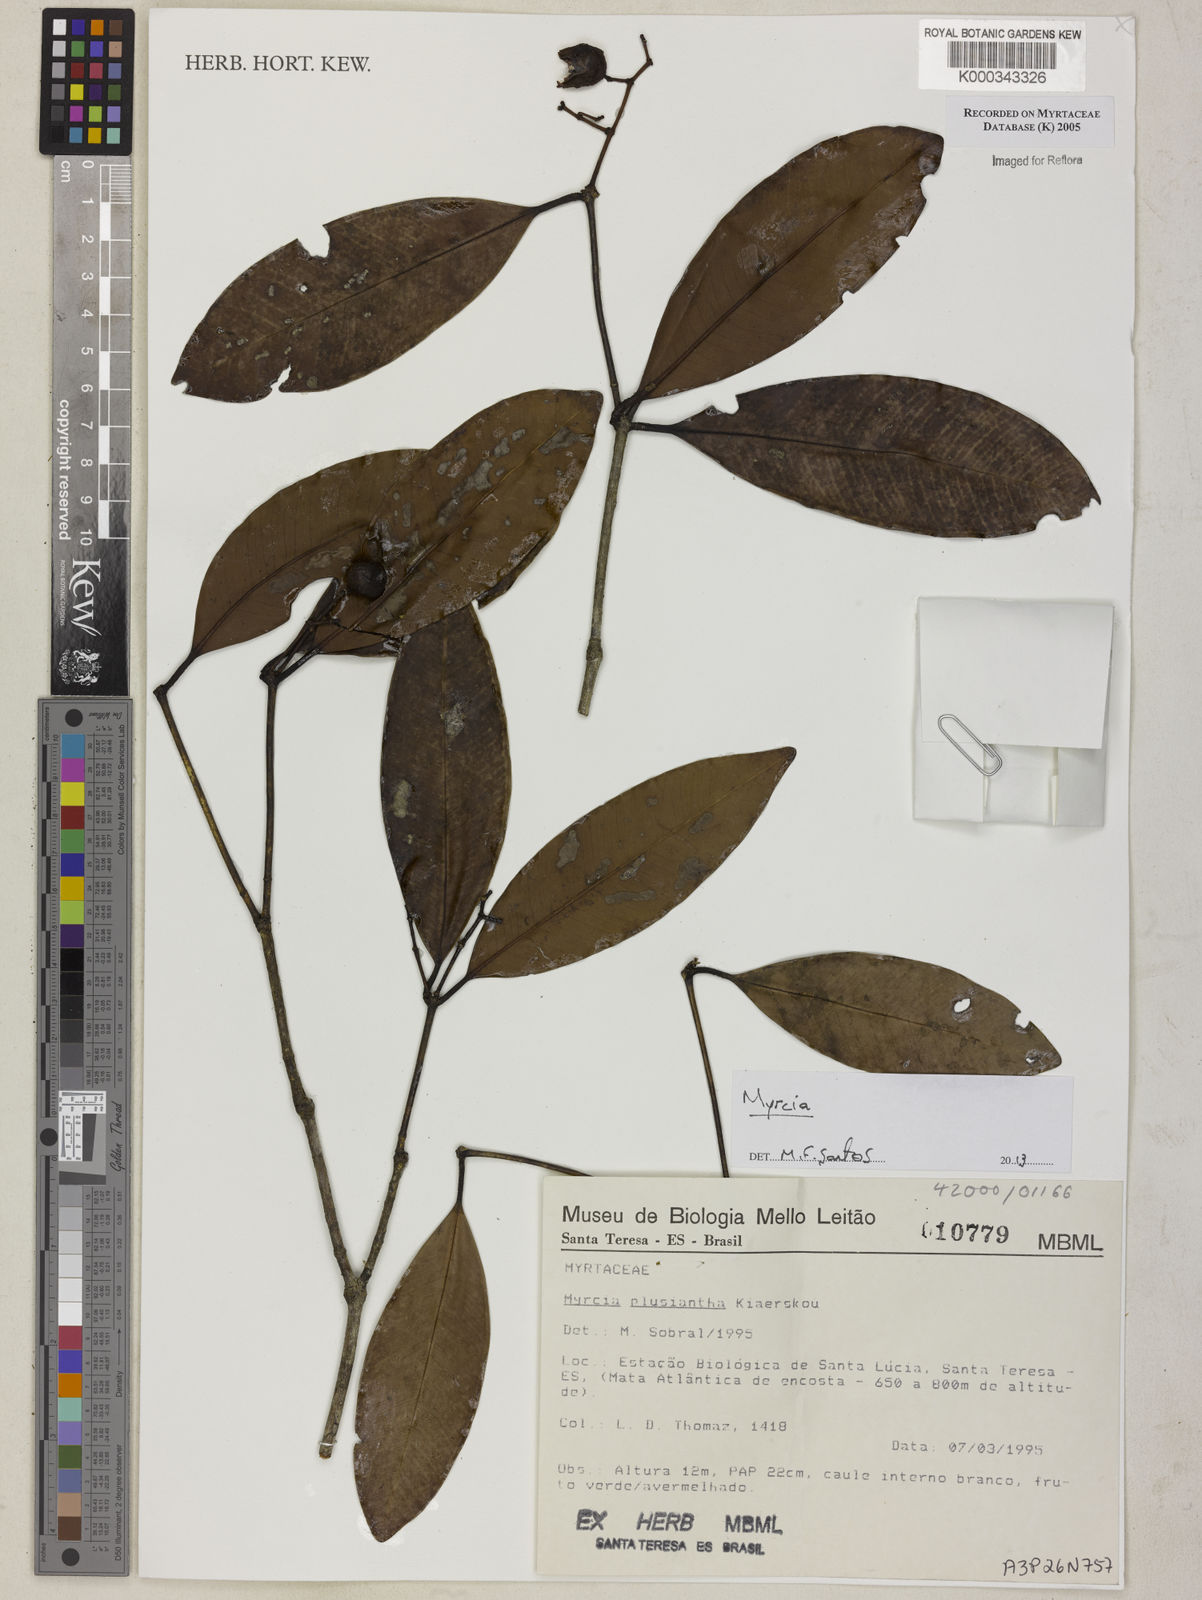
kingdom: Plantae
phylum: Tracheophyta
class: Magnoliopsida
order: Myrtales
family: Myrtaceae
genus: Myrcia
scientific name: Myrcia plusiantha
